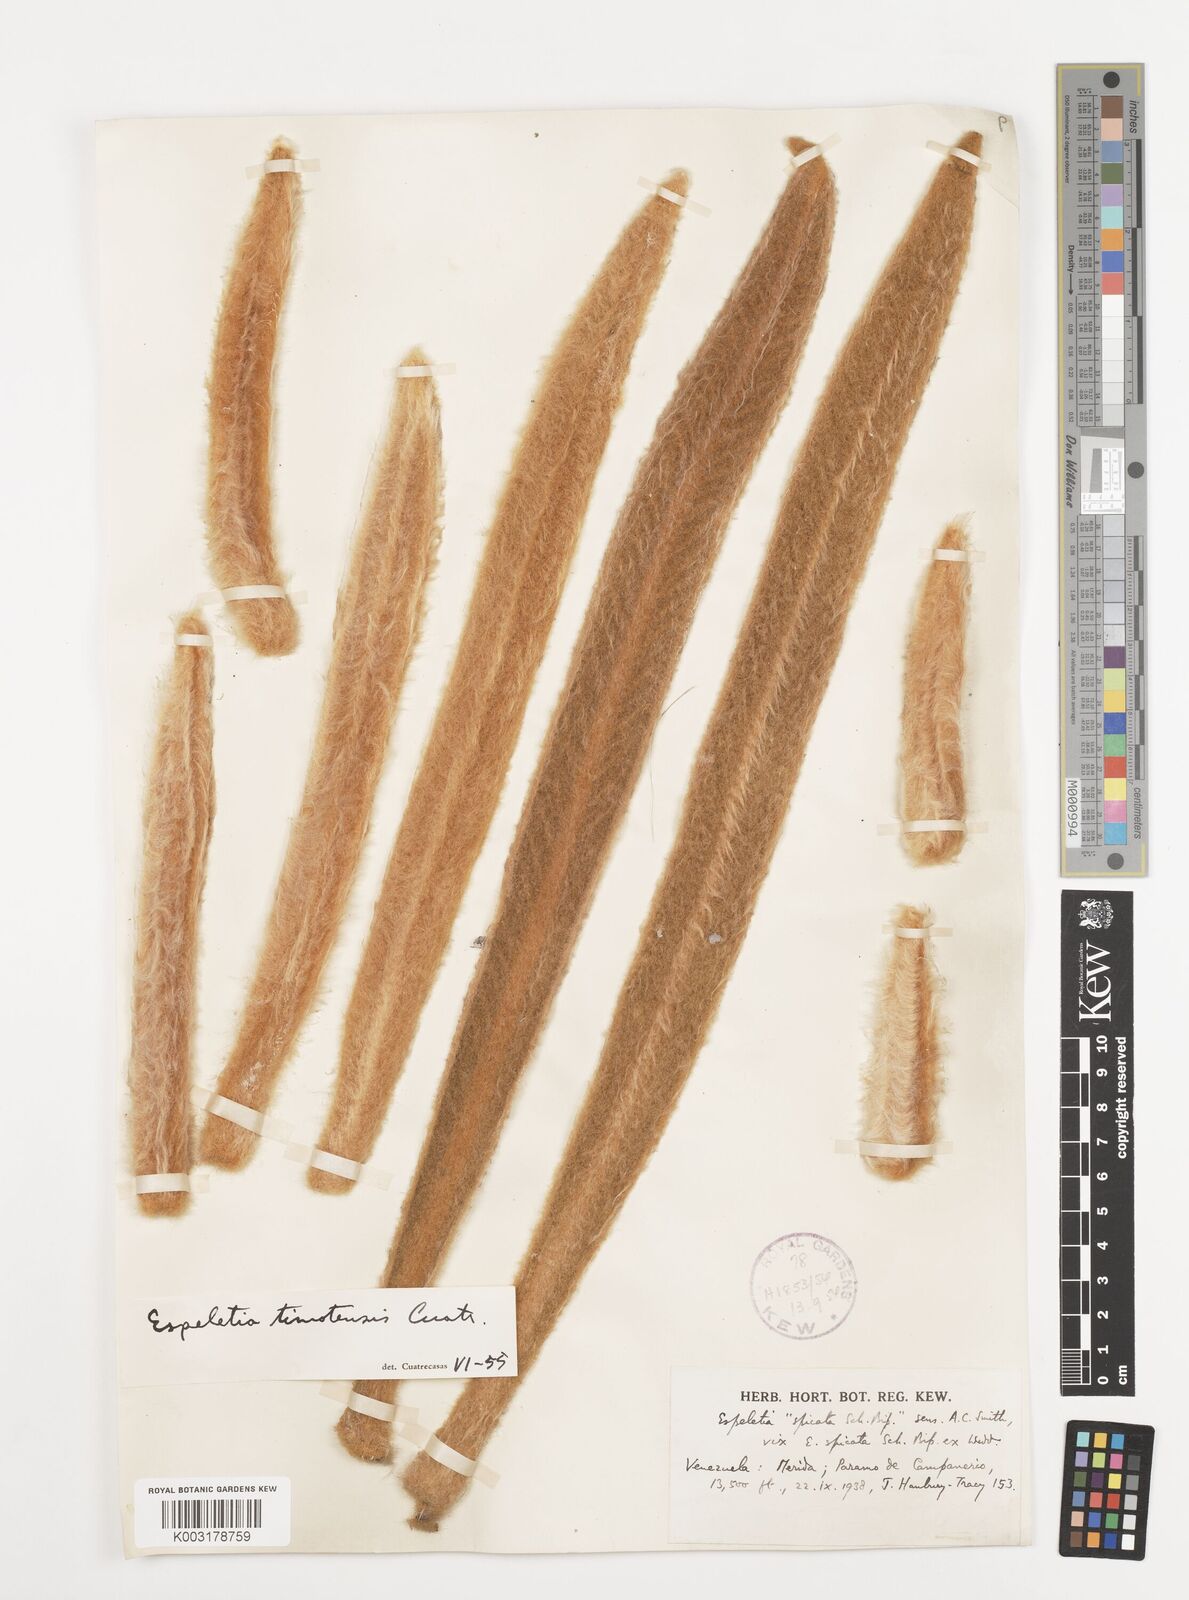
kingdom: Plantae
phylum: Tracheophyta
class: Magnoliopsida
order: Asterales
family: Asteraceae
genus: Espeletia
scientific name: Espeletia timotensis
